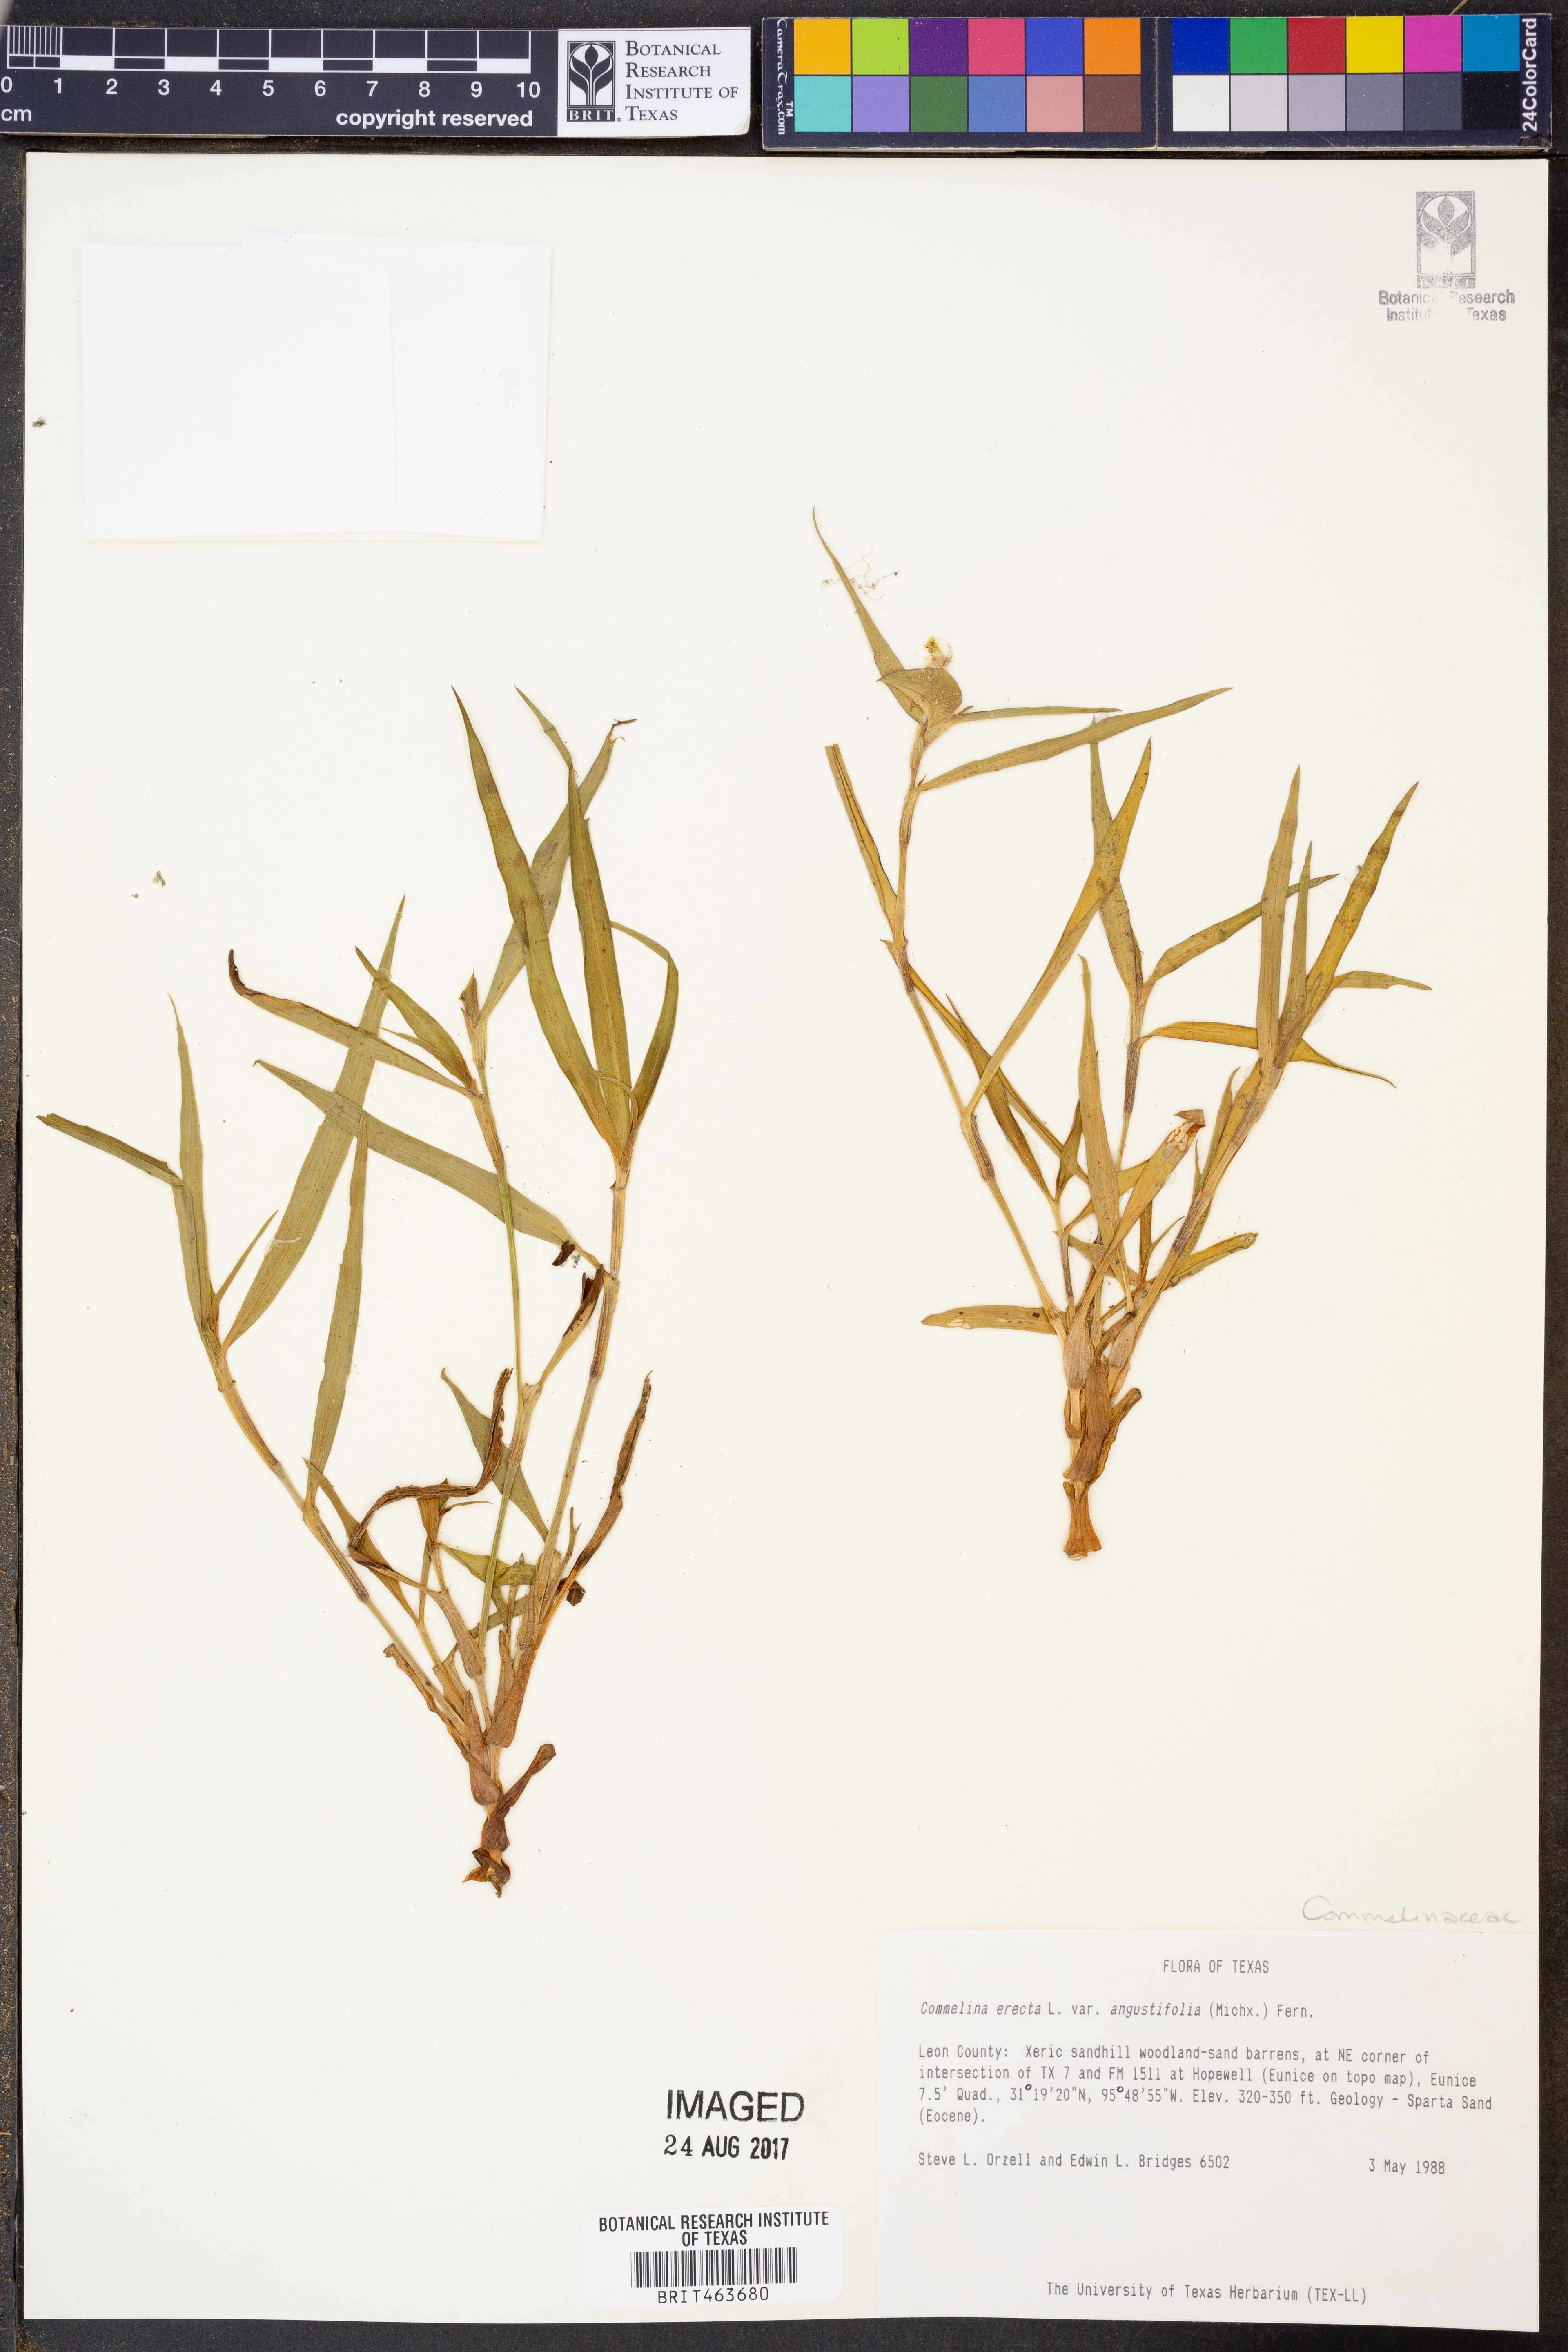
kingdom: Plantae
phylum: Tracheophyta
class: Liliopsida
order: Commelinales
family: Commelinaceae
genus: Commelina
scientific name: Commelina erecta
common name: Blousel blommetjie
